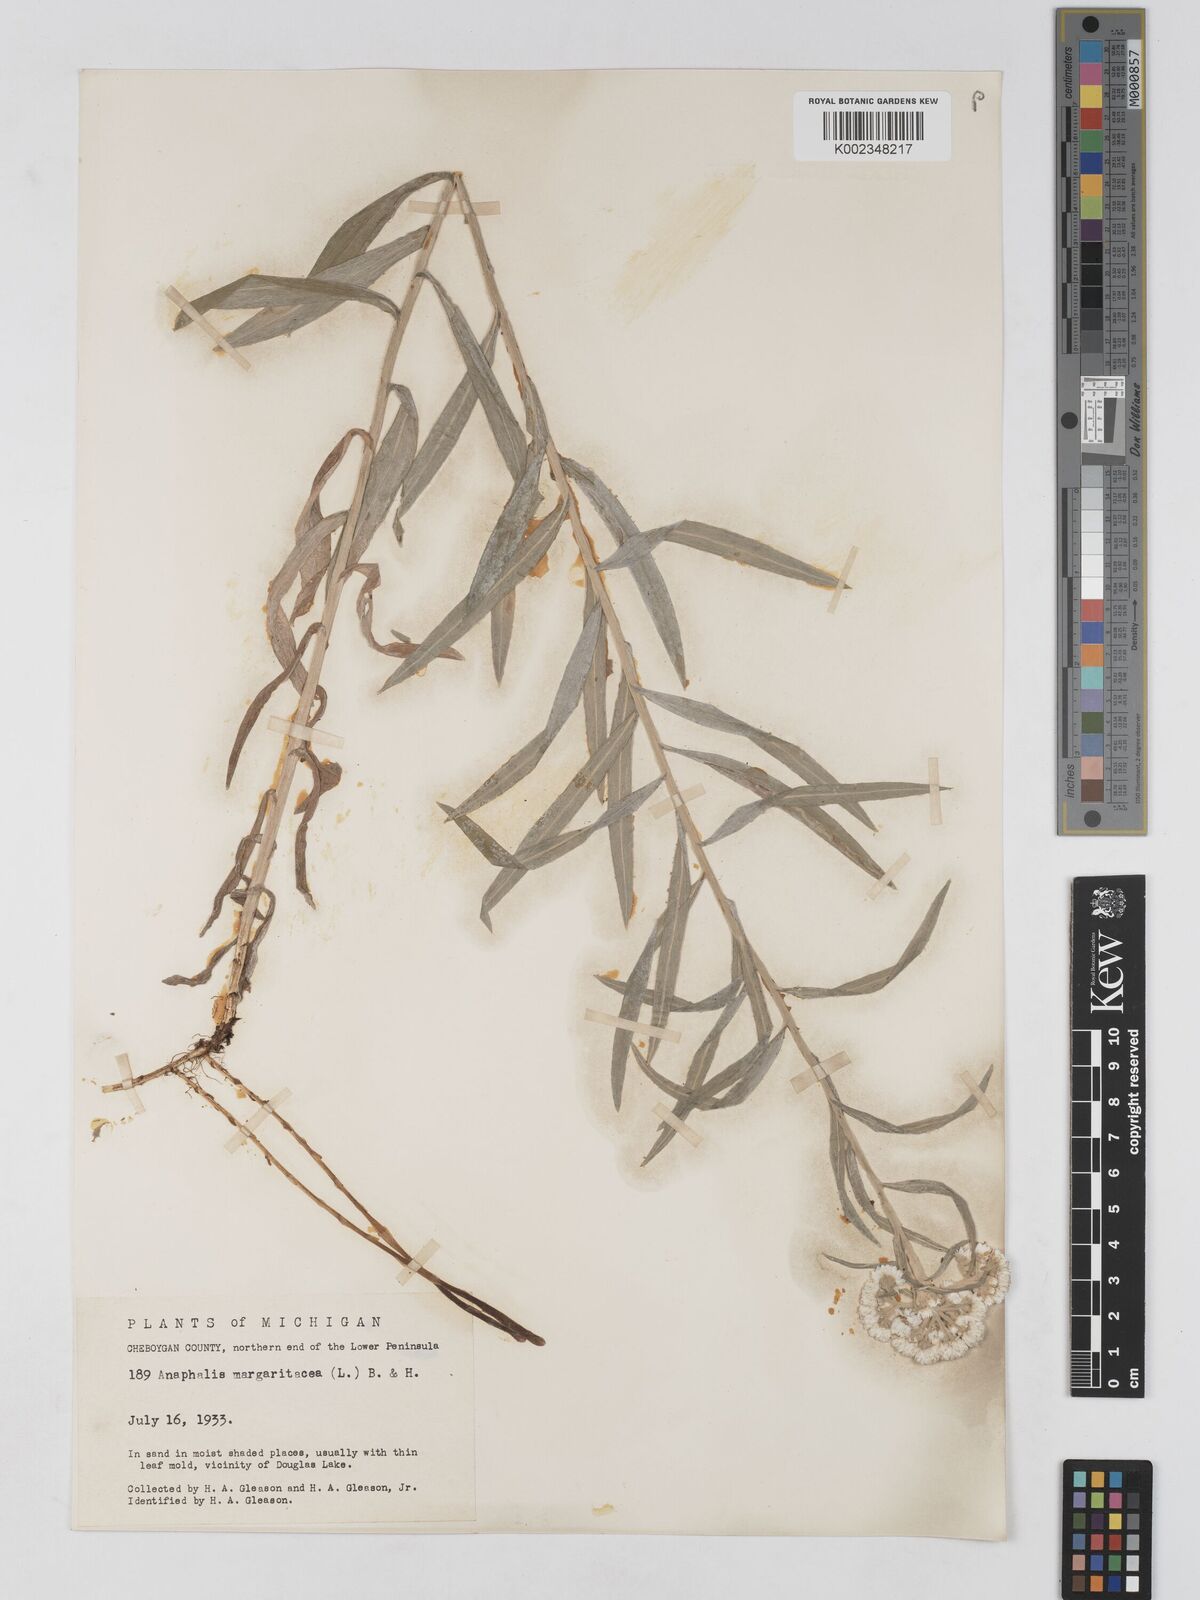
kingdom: Plantae
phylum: Tracheophyta
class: Magnoliopsida
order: Asterales
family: Asteraceae
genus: Anaphalis
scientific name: Anaphalis margaritacea
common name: Pearly everlasting
